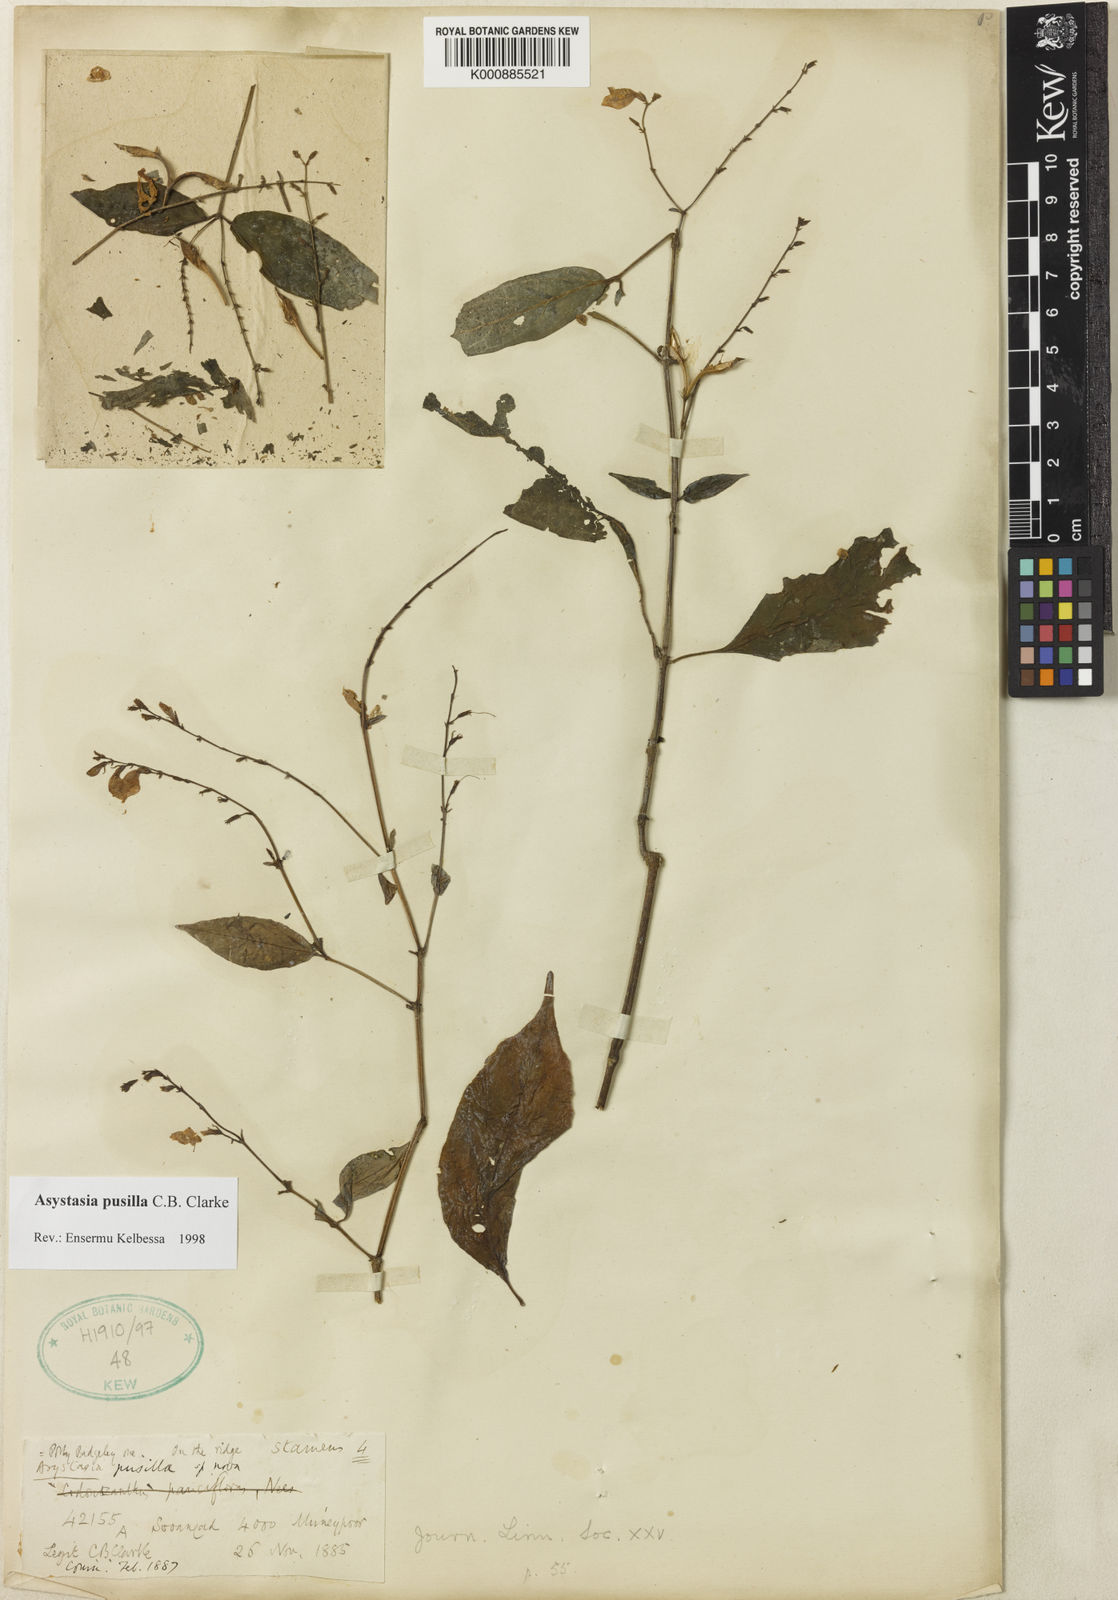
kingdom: Plantae
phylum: Tracheophyta
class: Magnoliopsida
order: Lamiales
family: Acanthaceae
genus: Asystasia
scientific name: Asystasia pusilla
